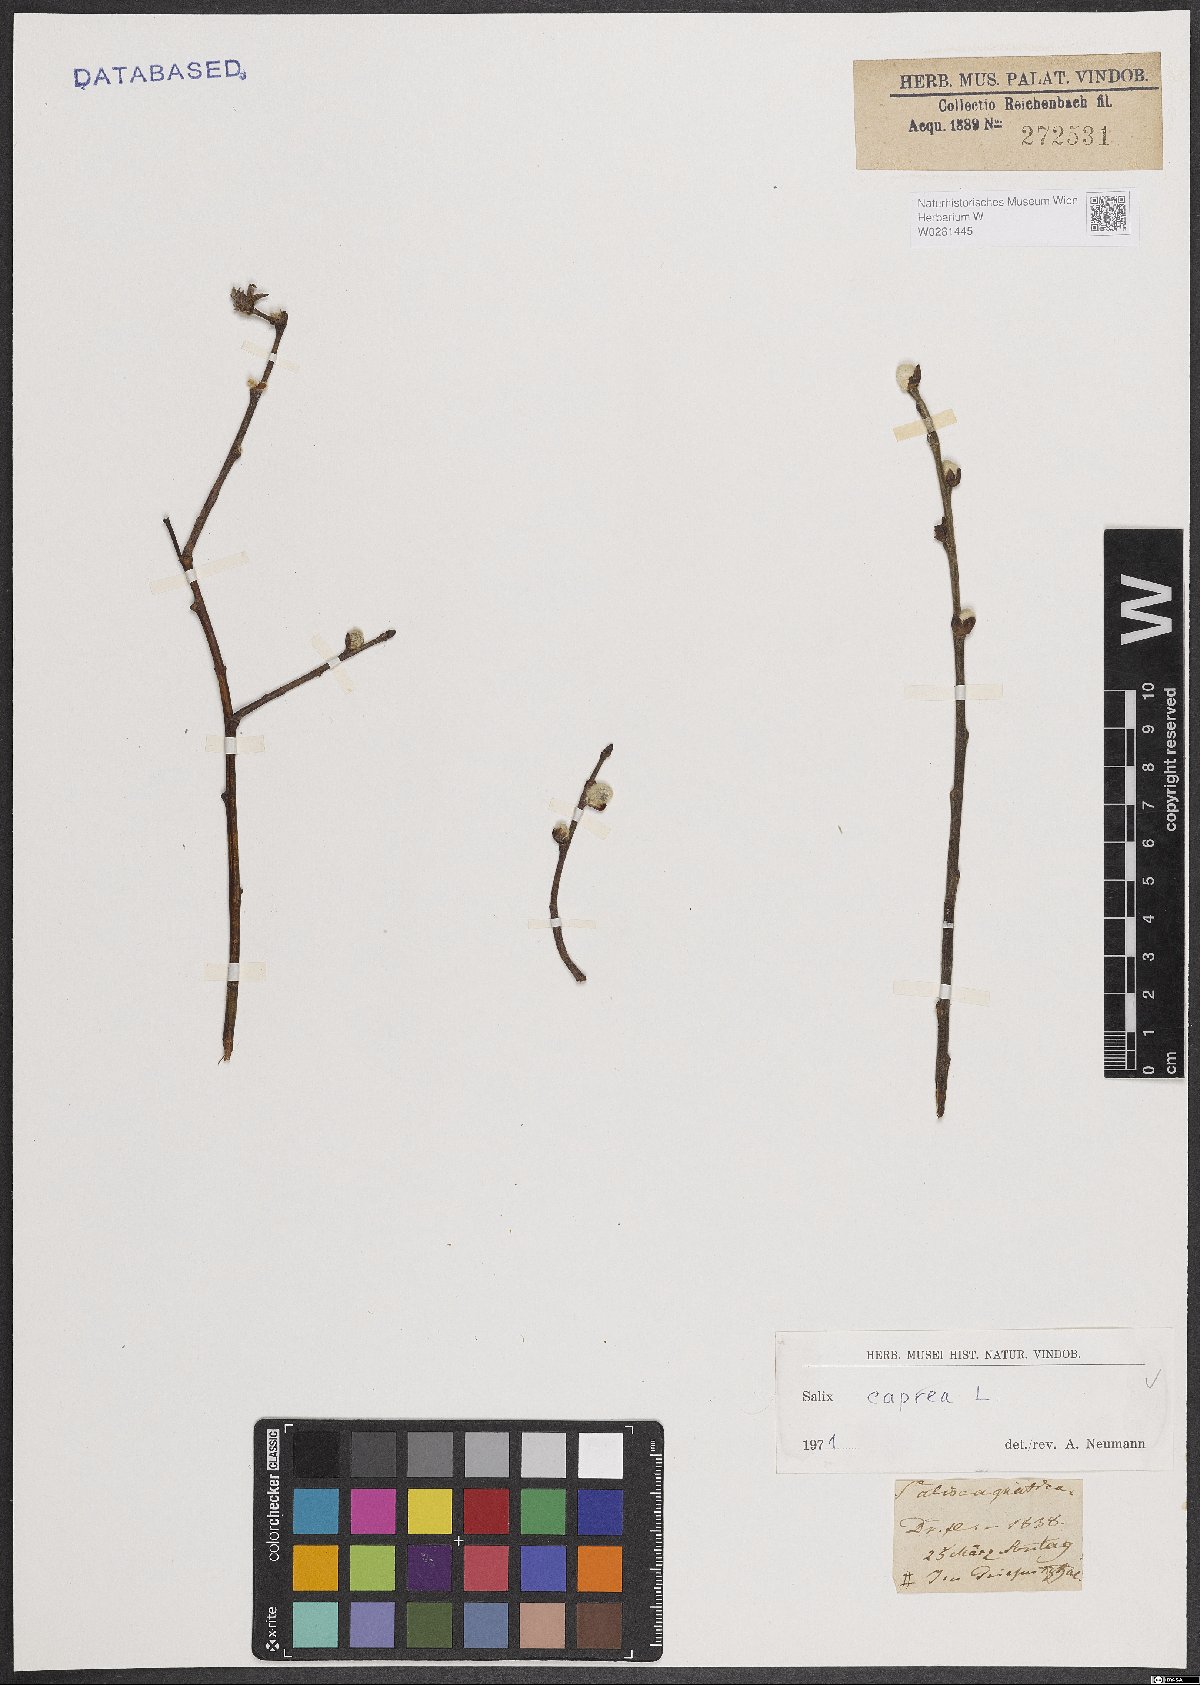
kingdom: Plantae
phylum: Tracheophyta
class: Magnoliopsida
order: Malpighiales
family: Salicaceae
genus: Salix
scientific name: Salix caprea
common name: Goat willow
